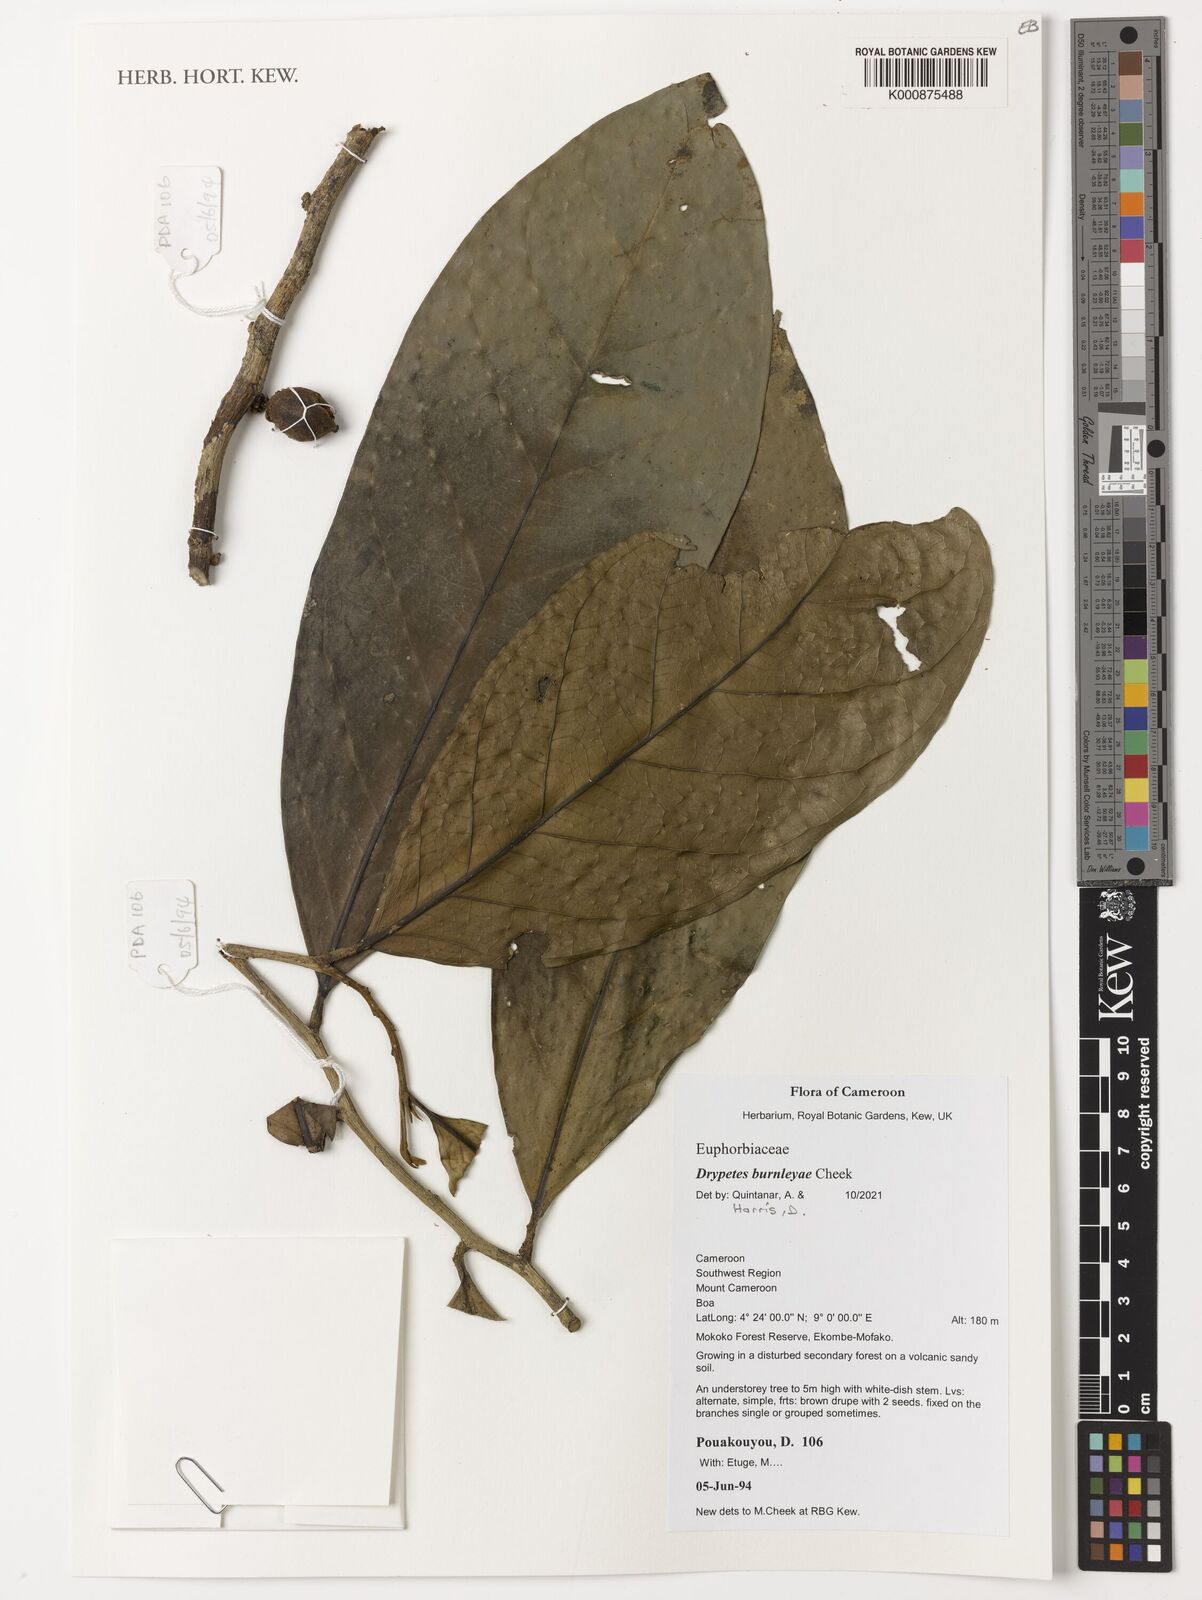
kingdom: Plantae
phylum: Tracheophyta
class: Magnoliopsida
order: Malpighiales
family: Putranjivaceae
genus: Drypetes
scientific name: Drypetes
